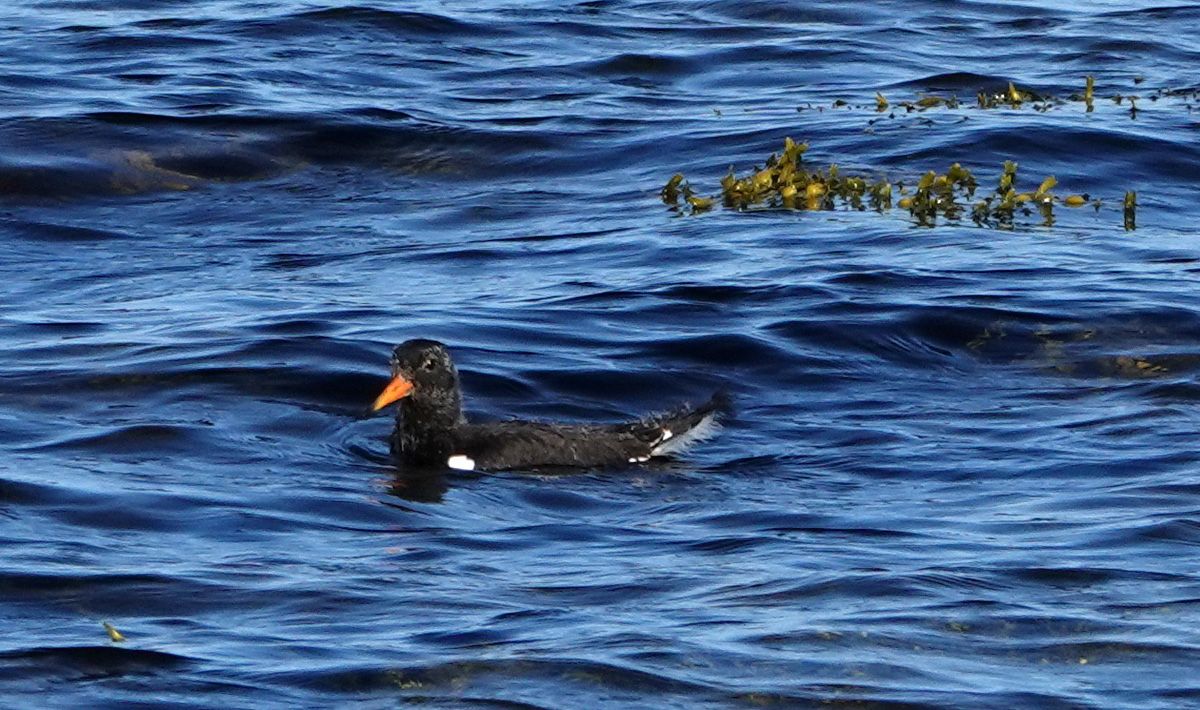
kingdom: Animalia
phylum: Chordata
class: Aves
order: Charadriiformes
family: Haematopodidae
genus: Haematopus
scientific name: Haematopus ostralegus
